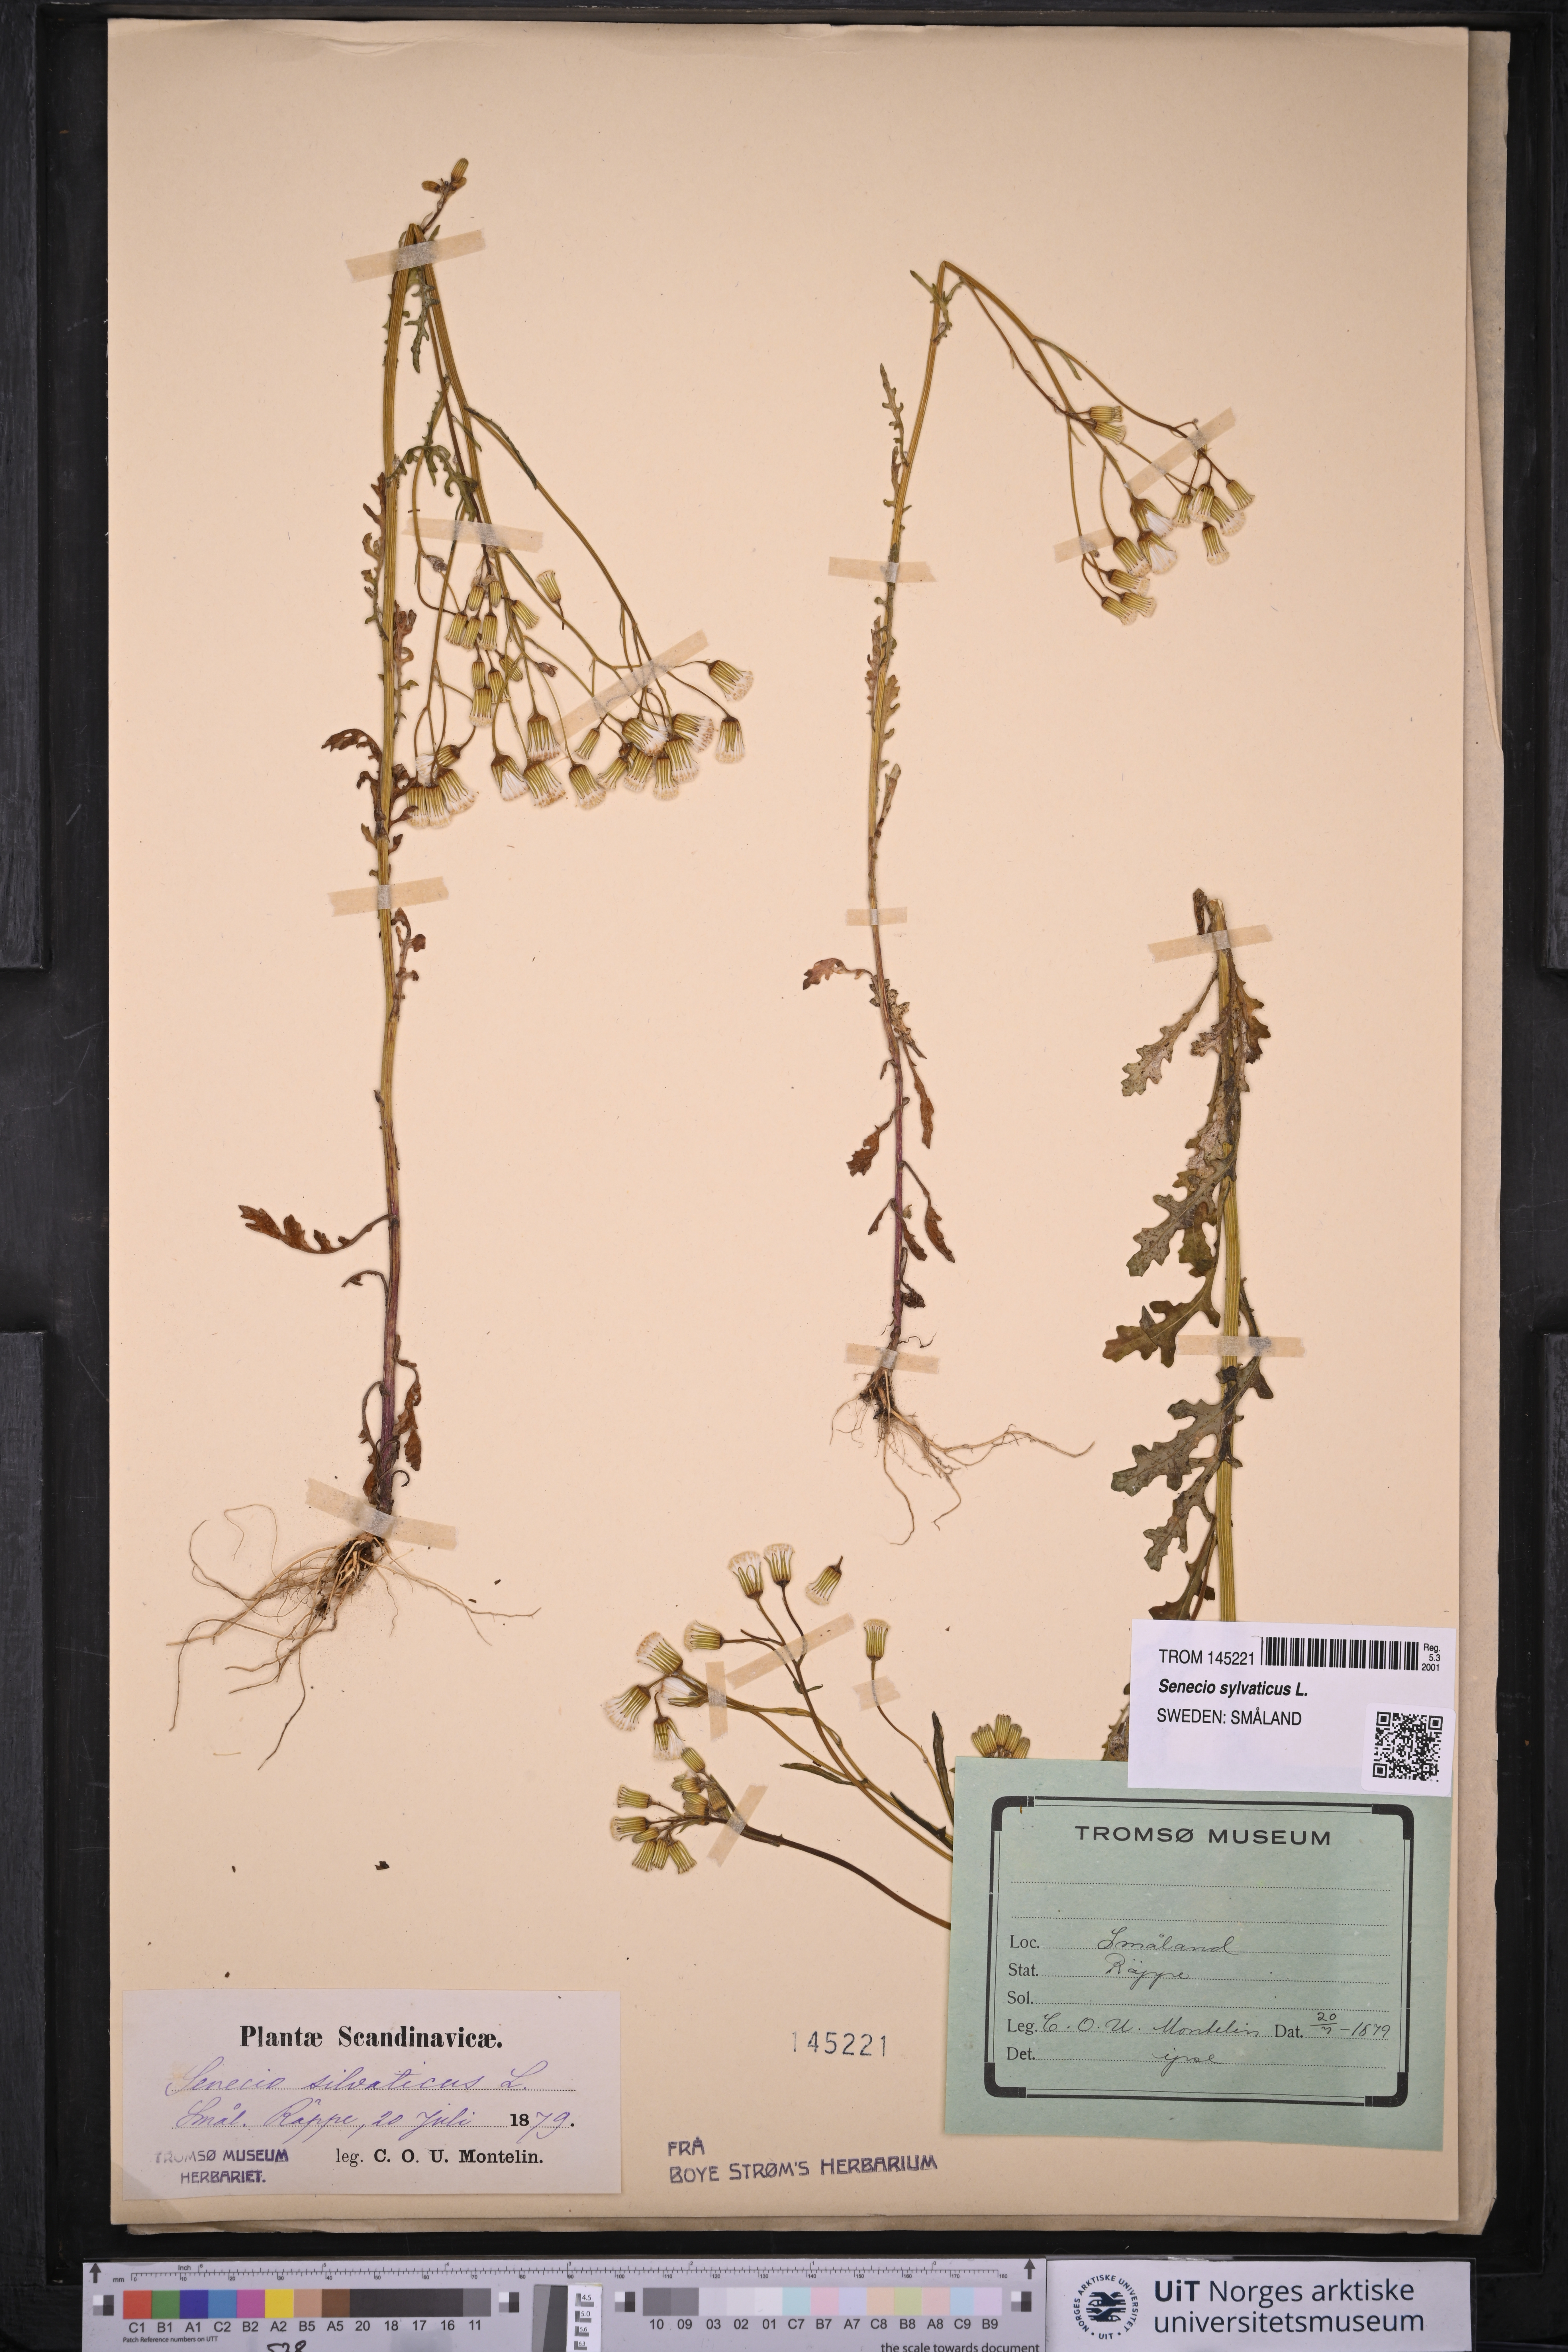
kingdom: Plantae
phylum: Tracheophyta
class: Magnoliopsida
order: Asterales
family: Asteraceae
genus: Senecio
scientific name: Senecio sylvaticus
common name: Woodland ragwort
